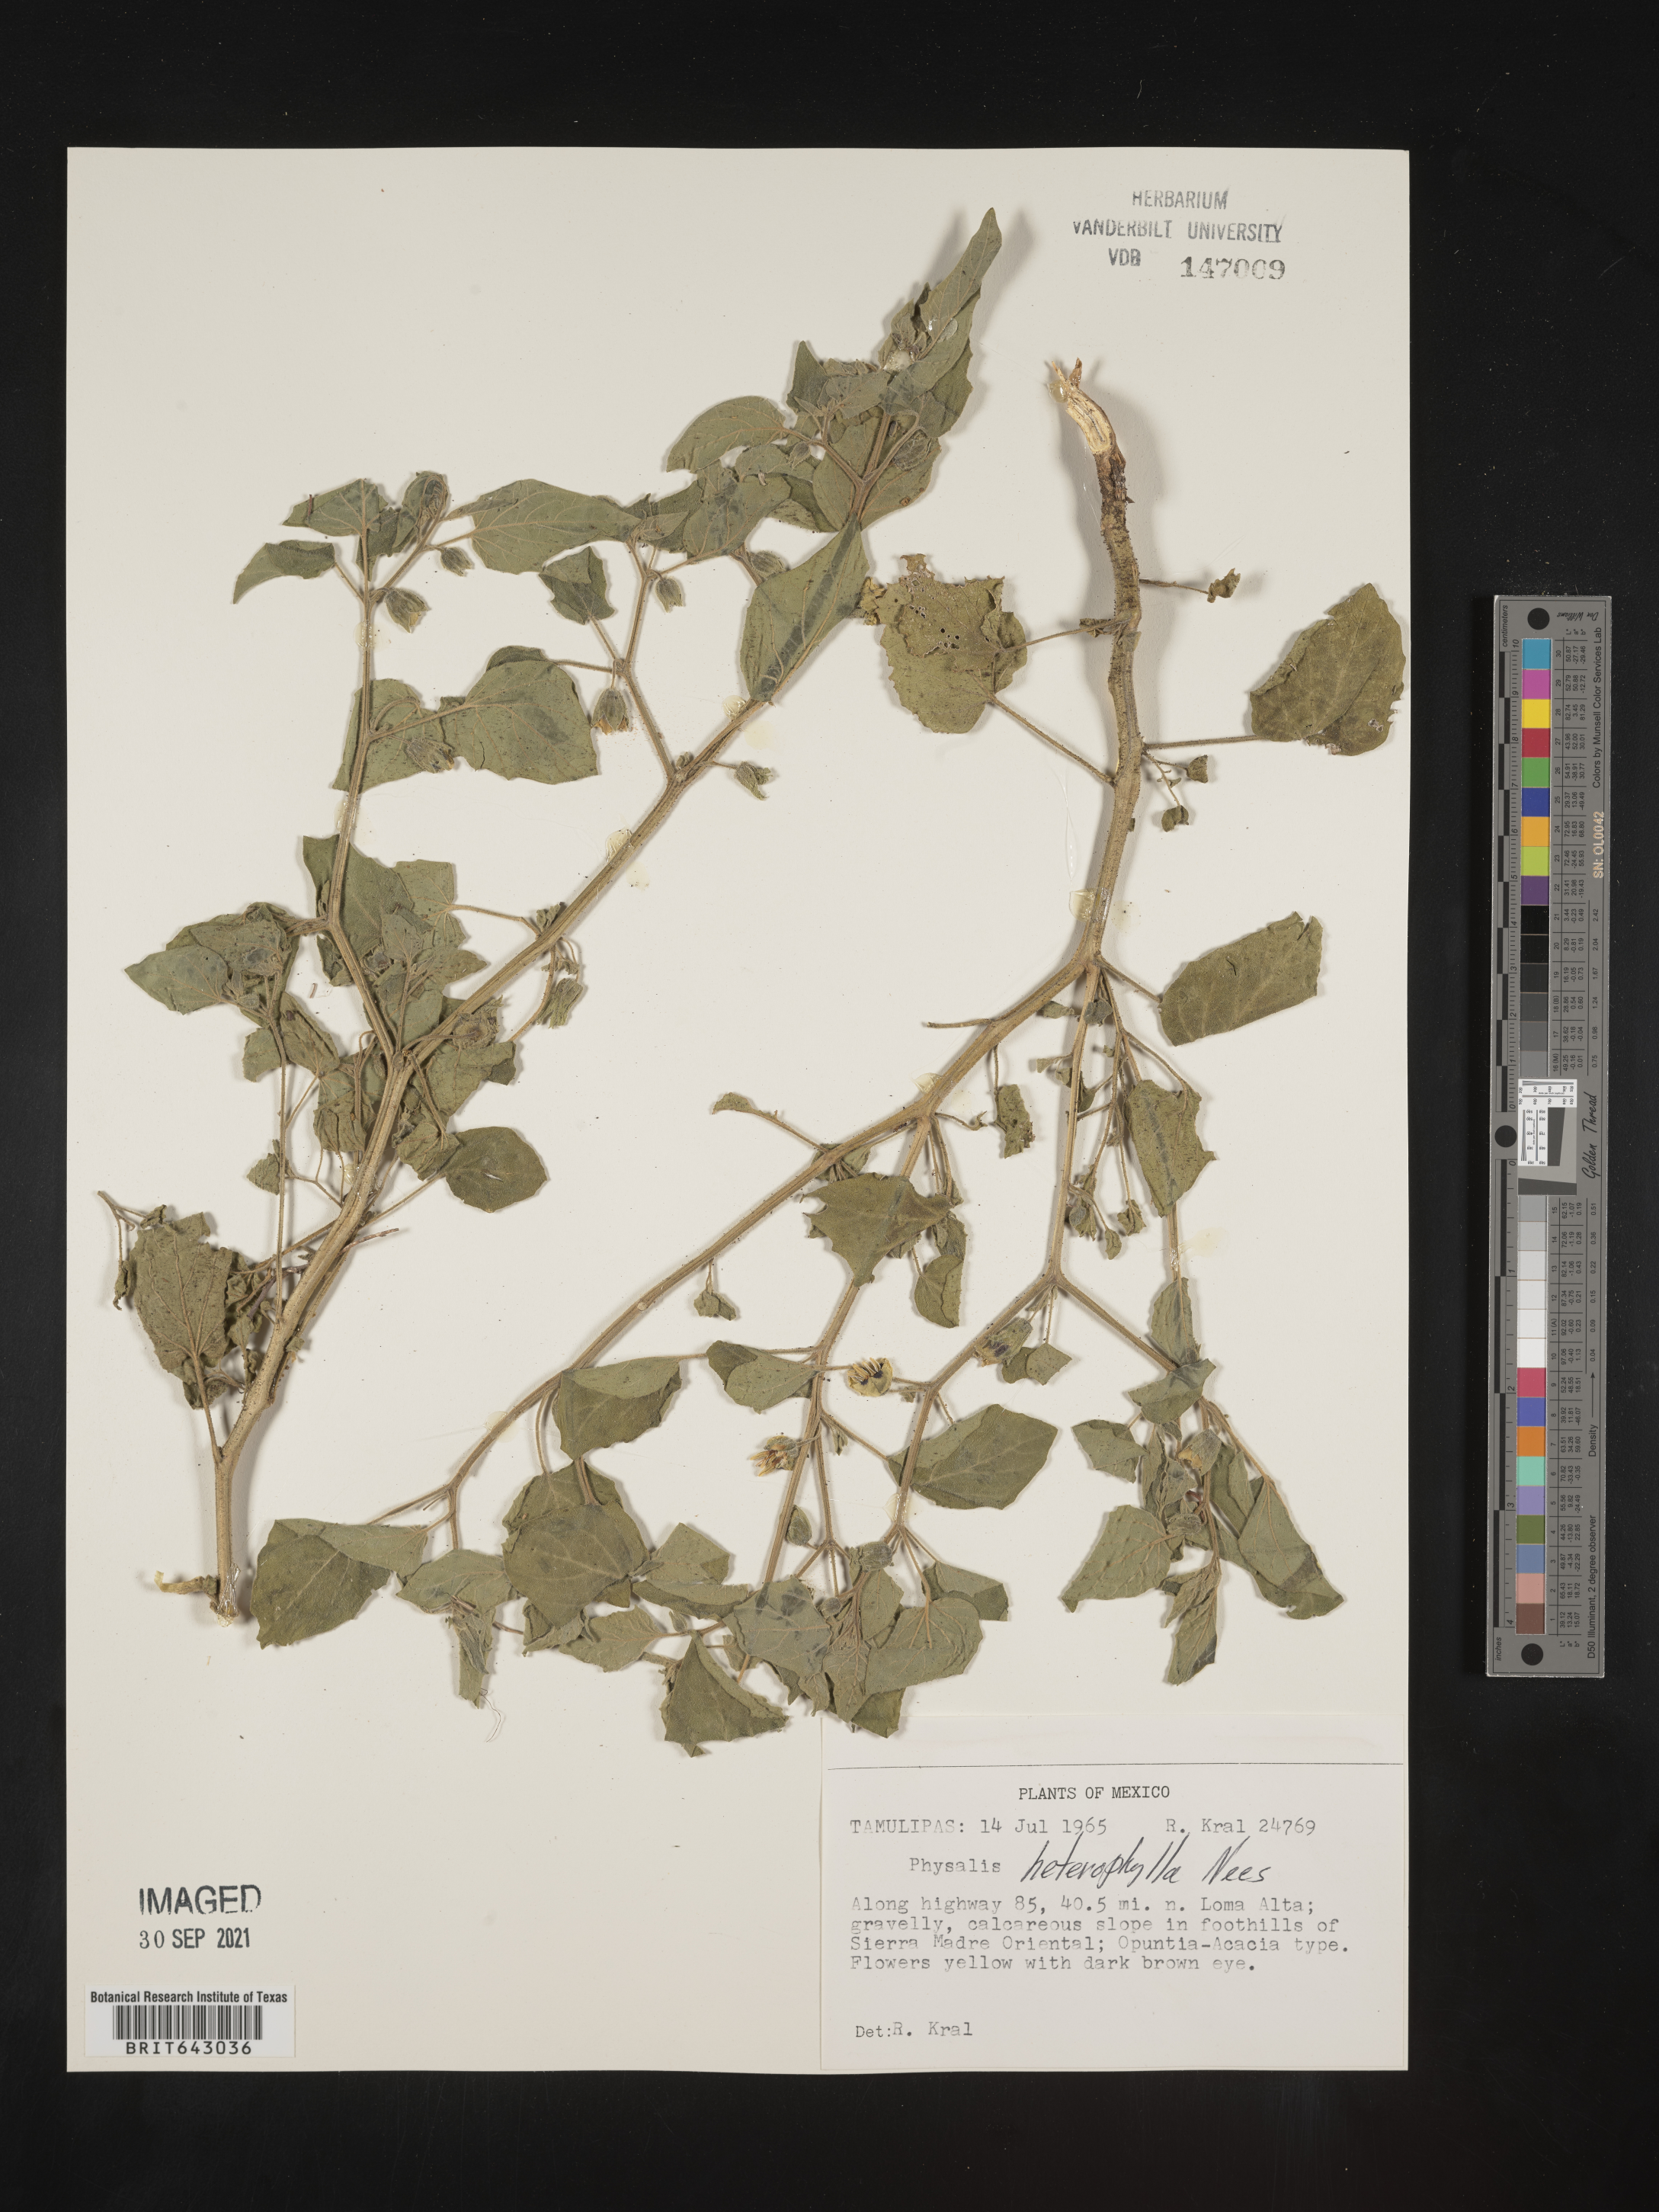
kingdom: Plantae
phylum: Tracheophyta
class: Magnoliopsida
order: Solanales
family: Solanaceae
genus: Physalis
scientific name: Physalis
